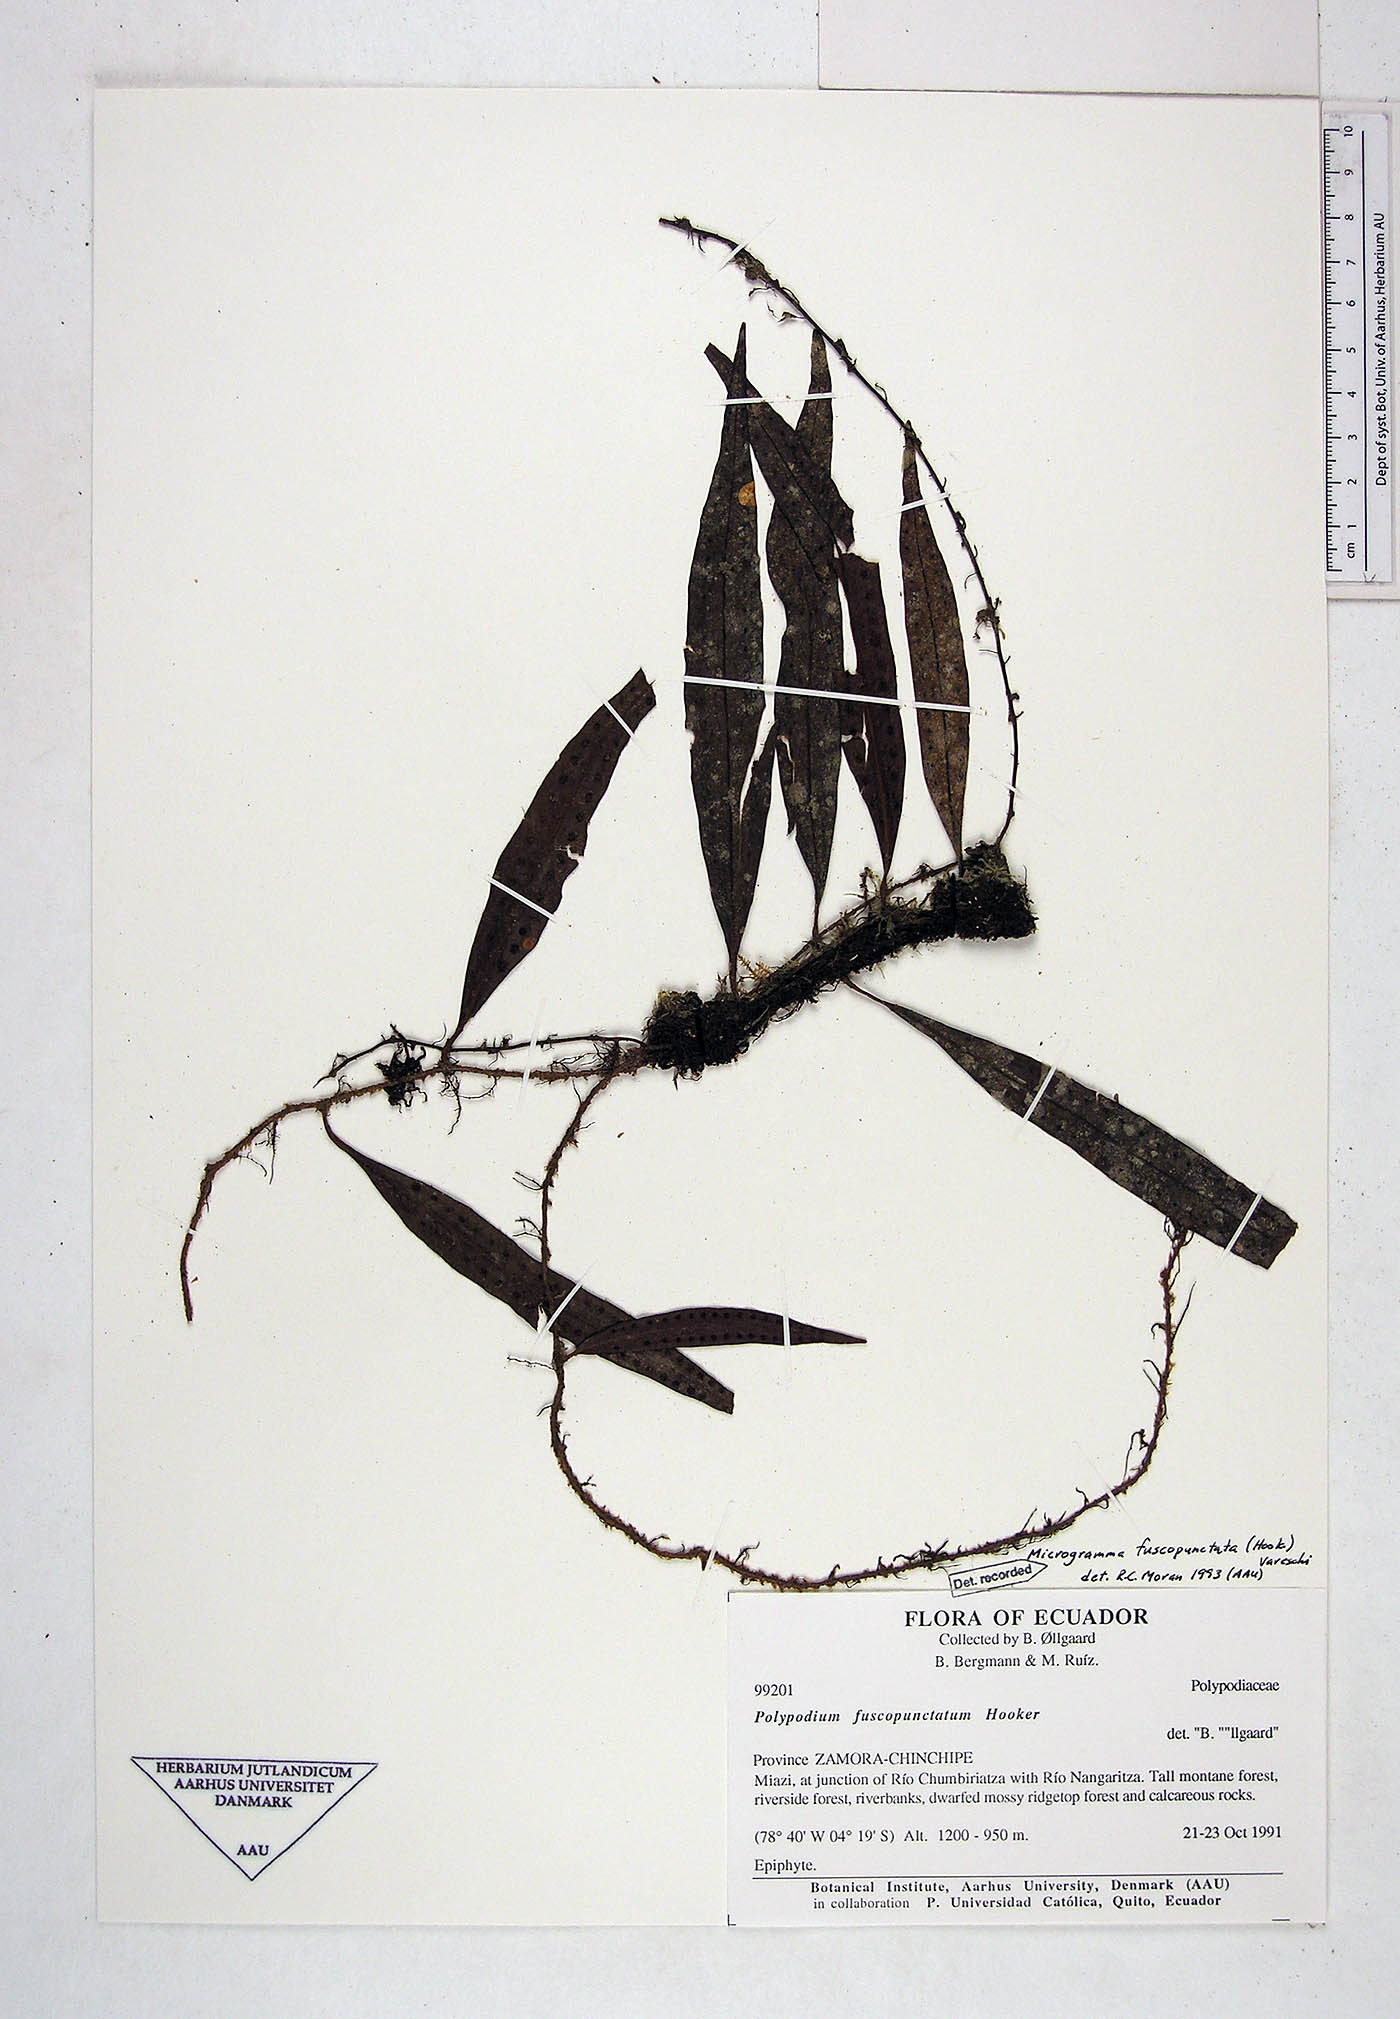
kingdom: Plantae
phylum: Tracheophyta
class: Polypodiopsida
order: Polypodiales
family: Polypodiaceae
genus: Microgramma
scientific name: Microgramma dictyophylla
